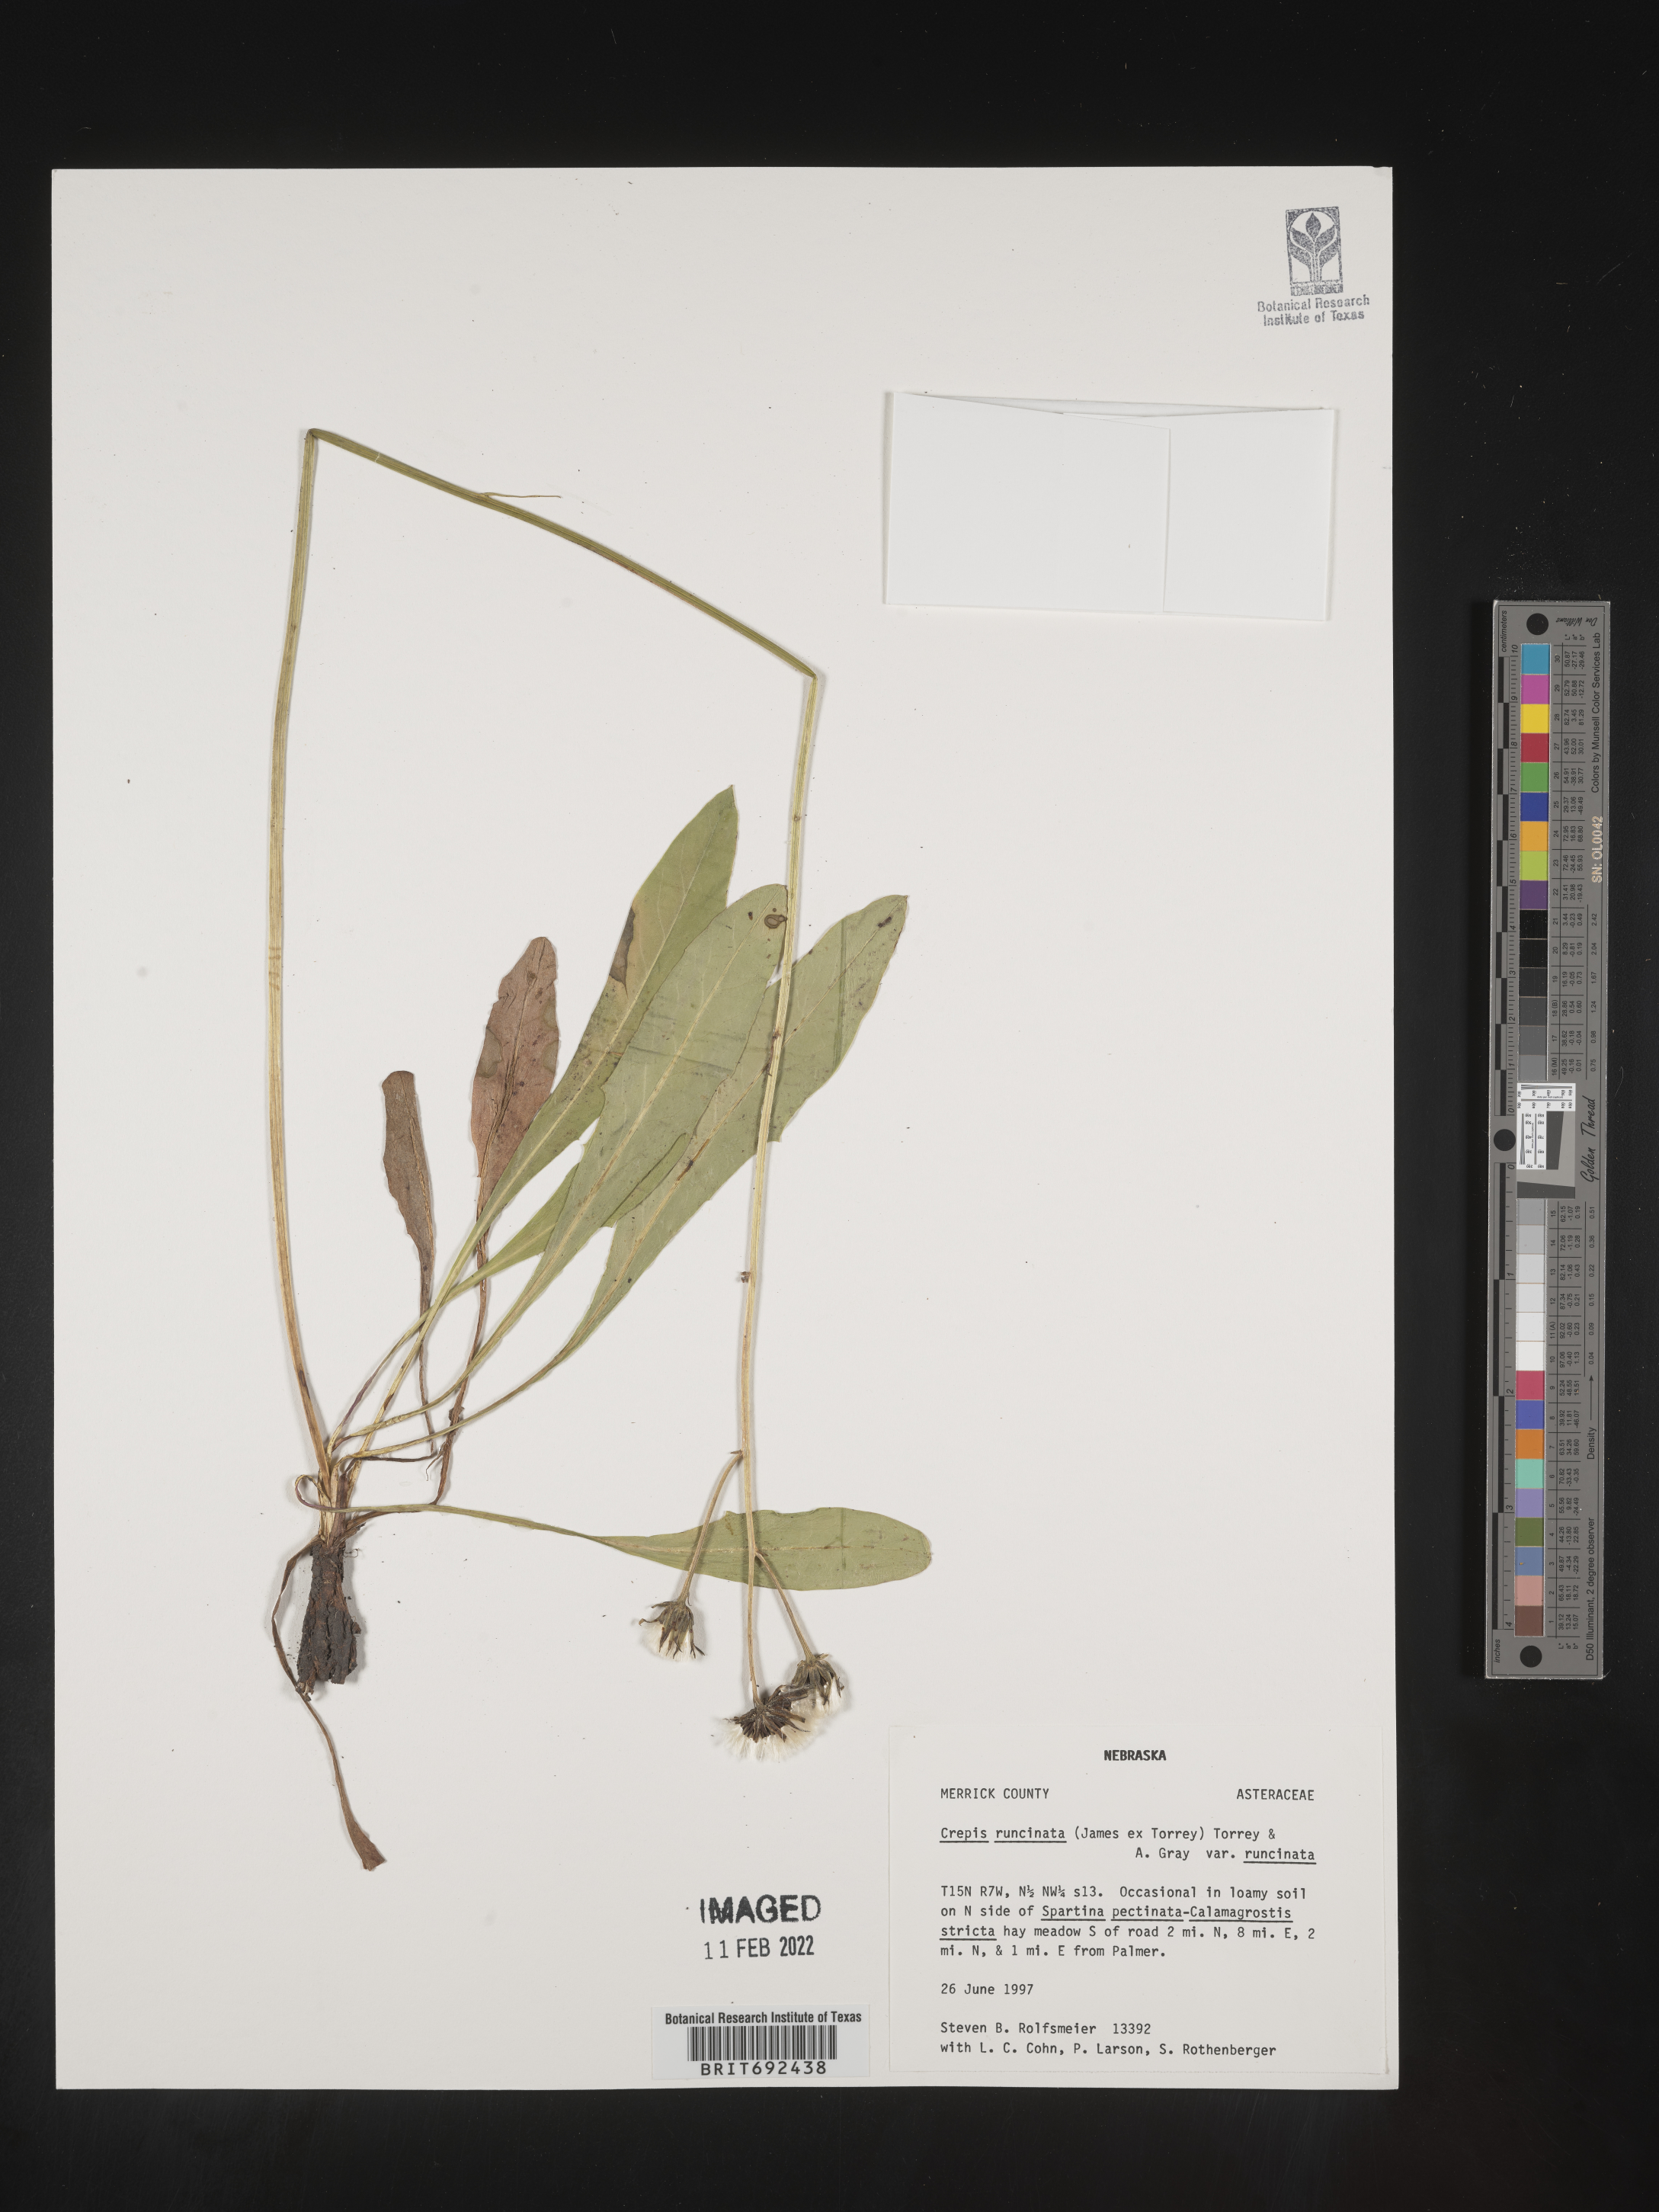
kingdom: Plantae
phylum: Tracheophyta
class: Magnoliopsida
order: Asterales
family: Asteraceae
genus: Crepis
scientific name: Crepis
